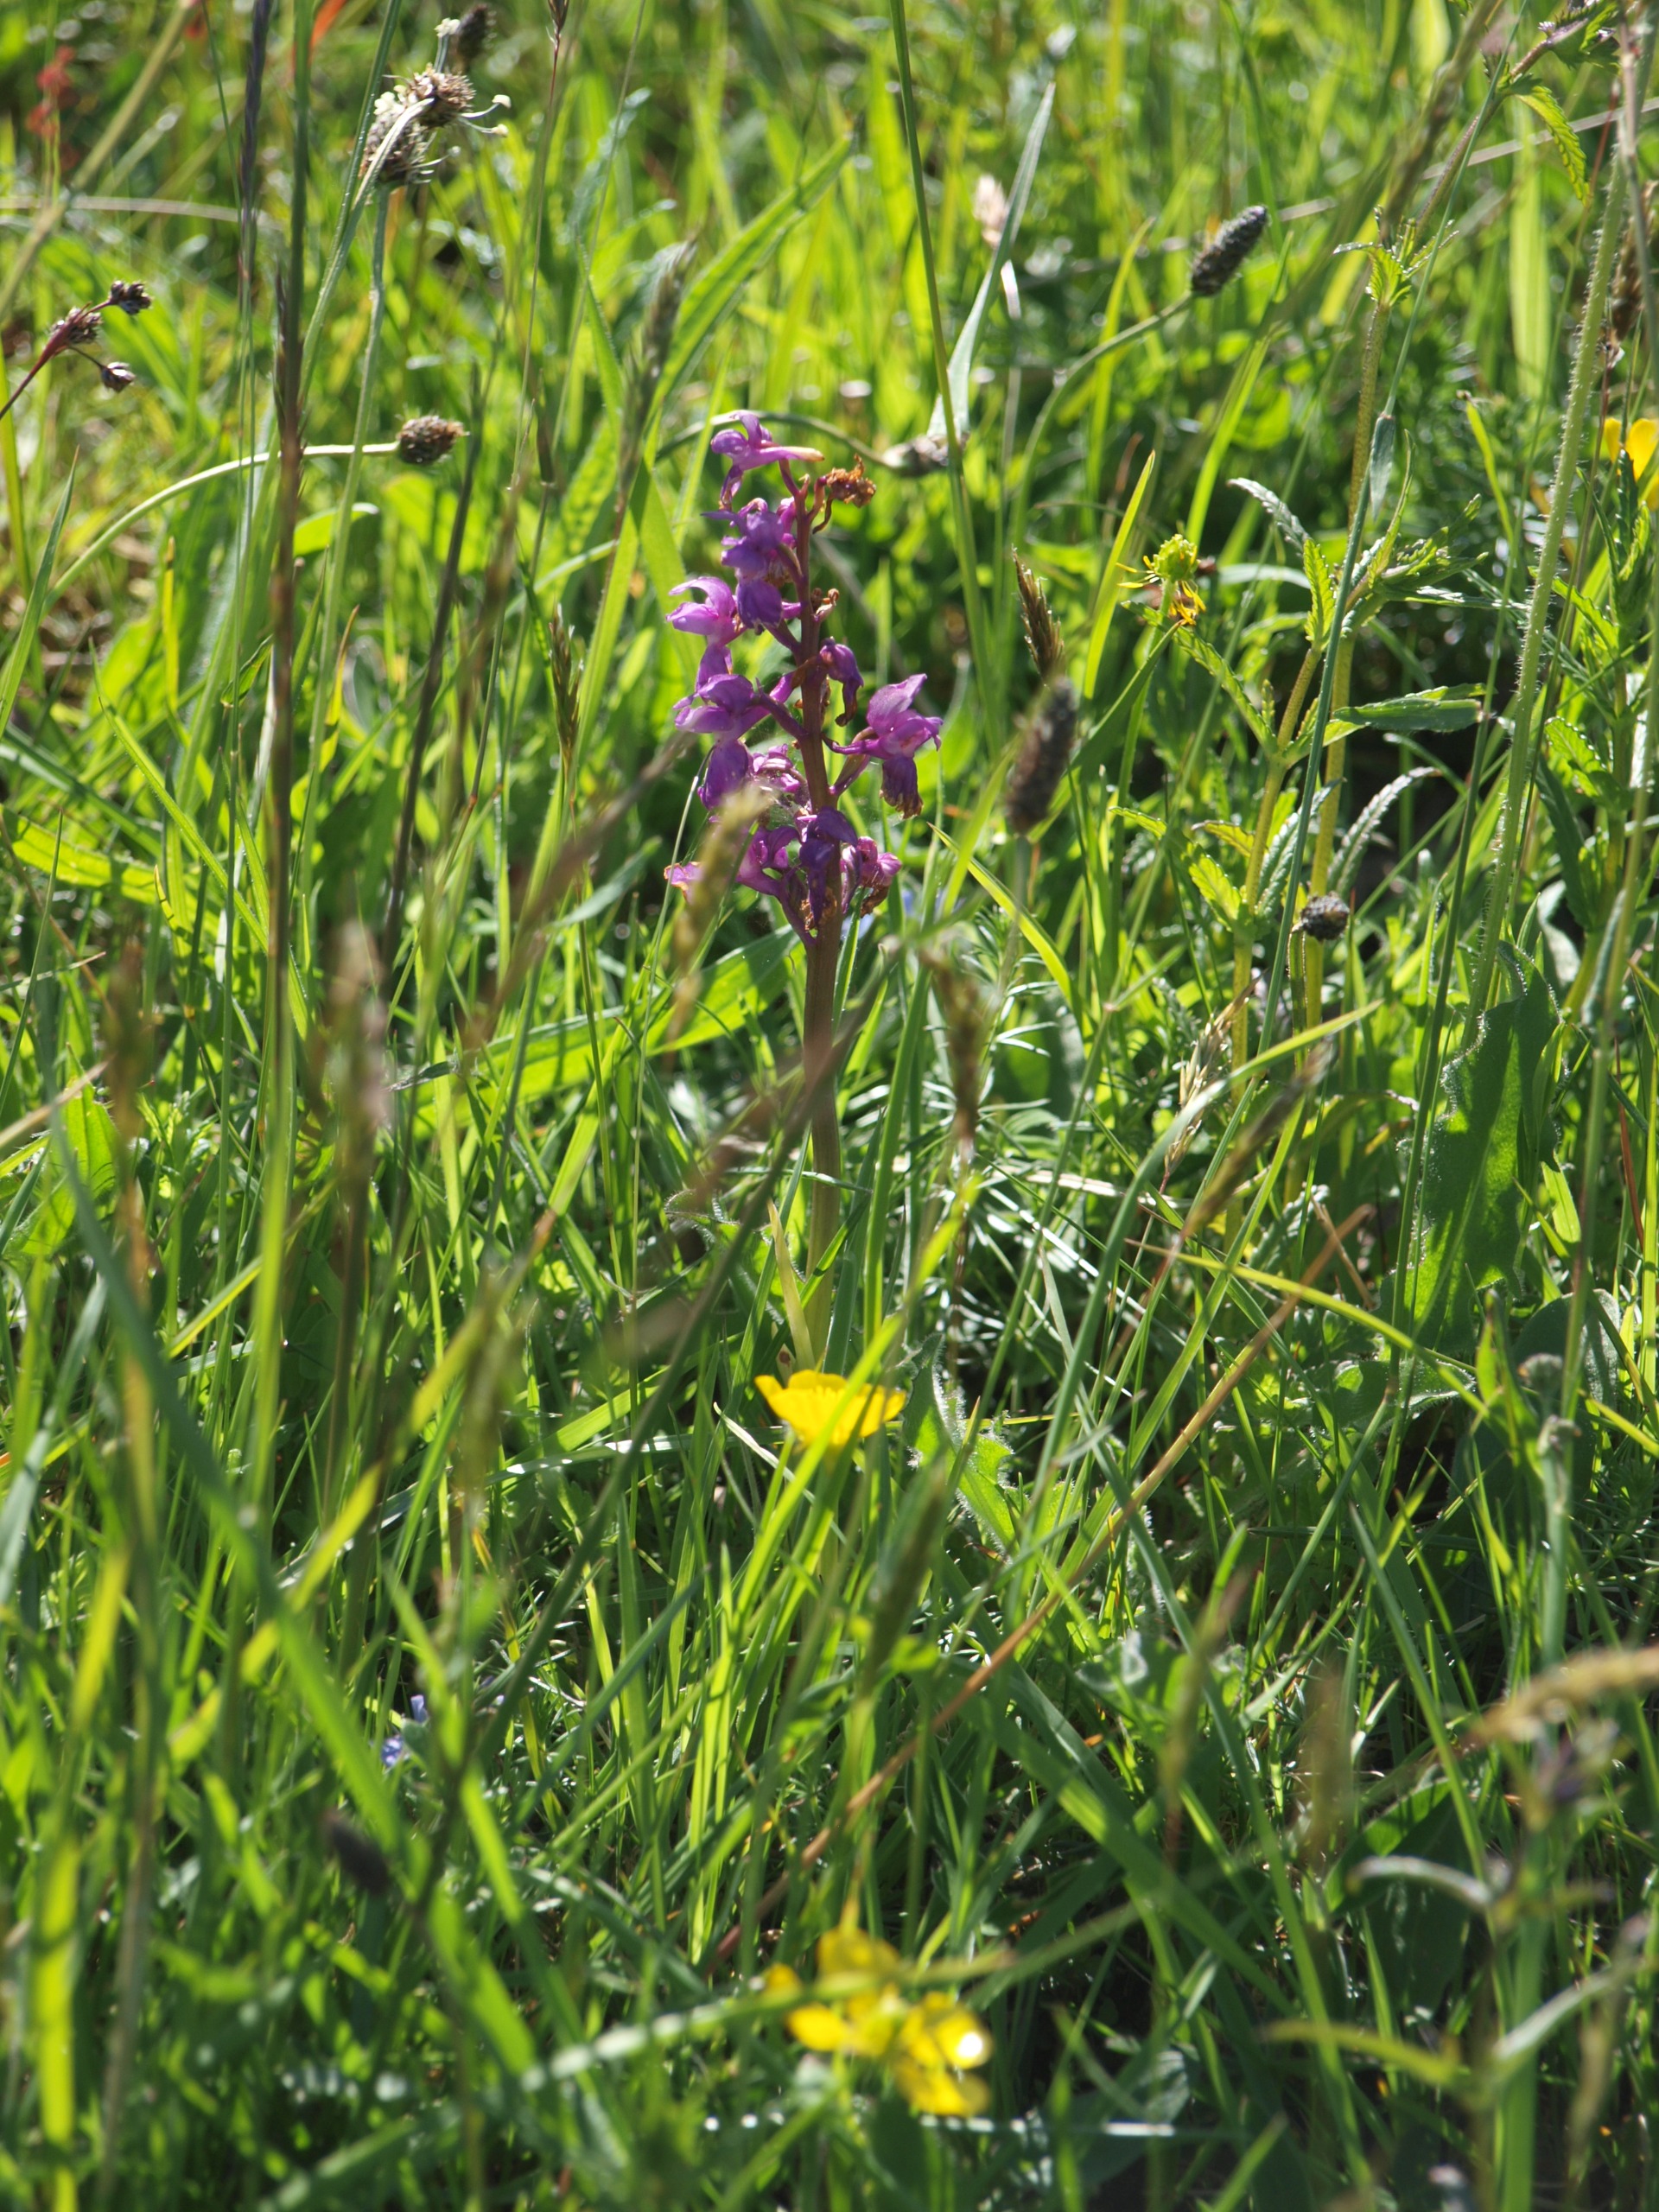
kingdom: Plantae
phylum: Tracheophyta
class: Liliopsida
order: Asparagales
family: Orchidaceae
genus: Orchis
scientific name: Orchis mascula
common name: Tyndakset gøgeurt
